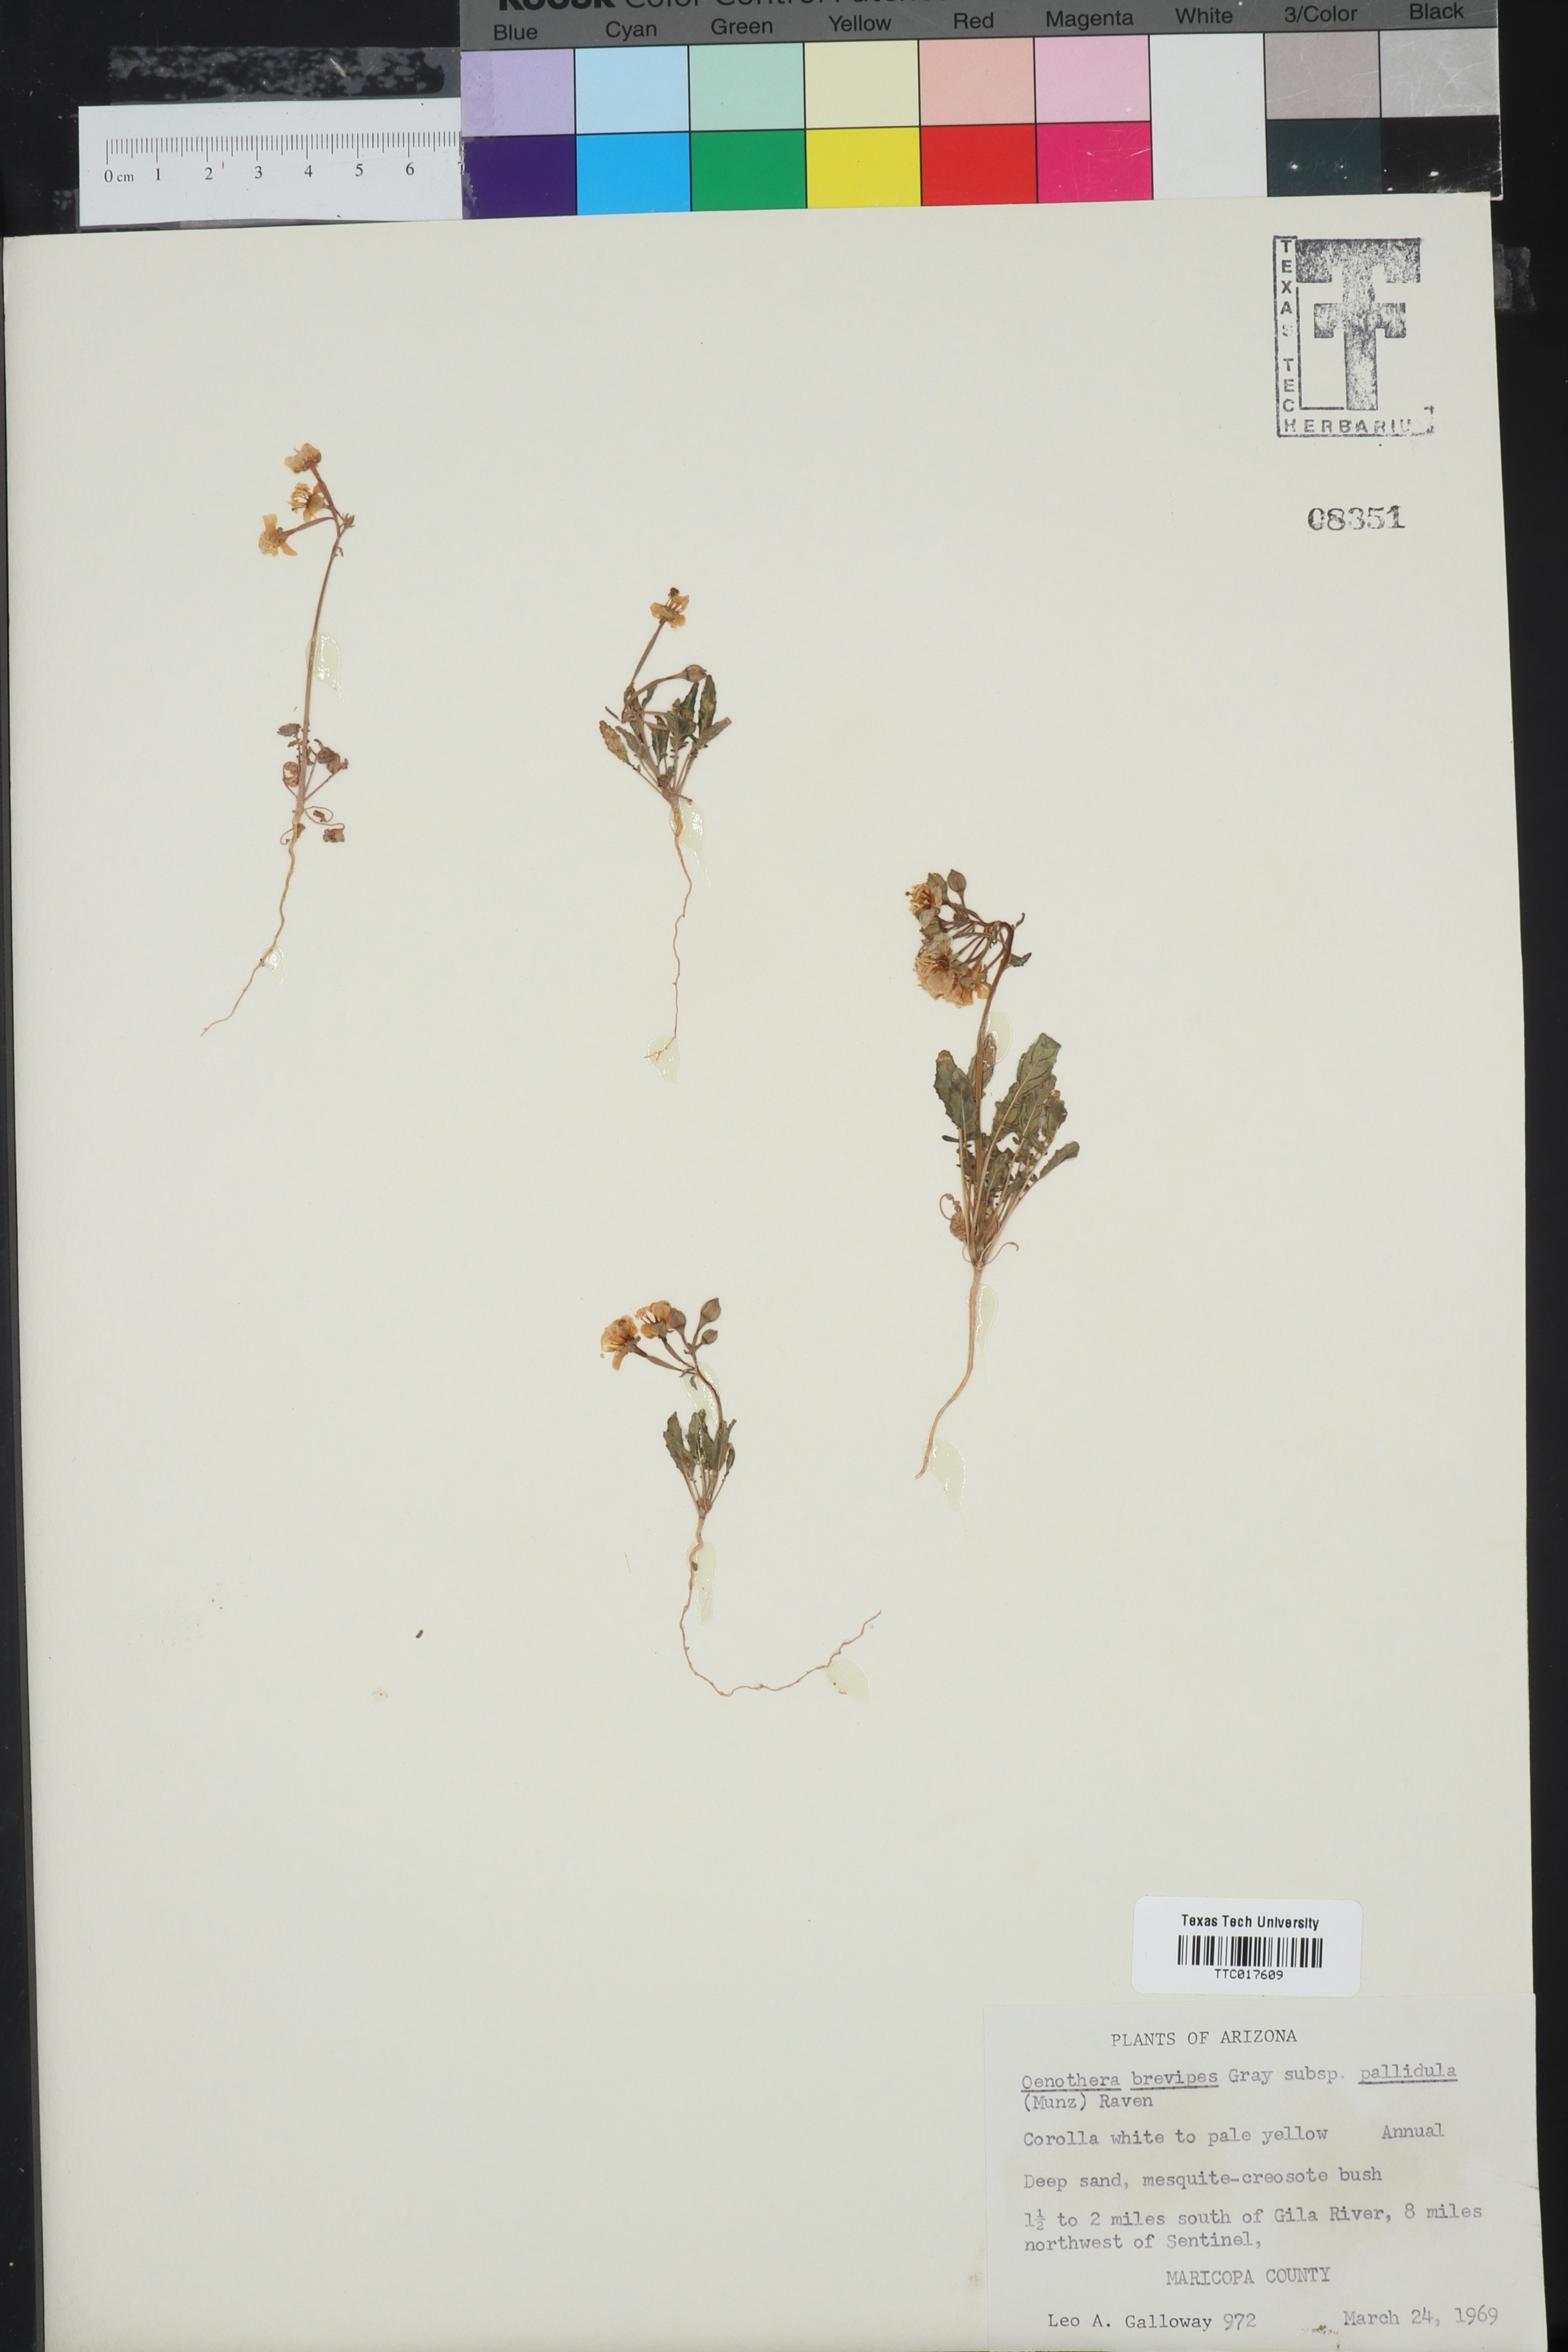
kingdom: Plantae
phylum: Tracheophyta
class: Magnoliopsida
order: Myrtales
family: Onagraceae
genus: Chylismia
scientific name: Chylismia brevipes
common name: Yellow cups
